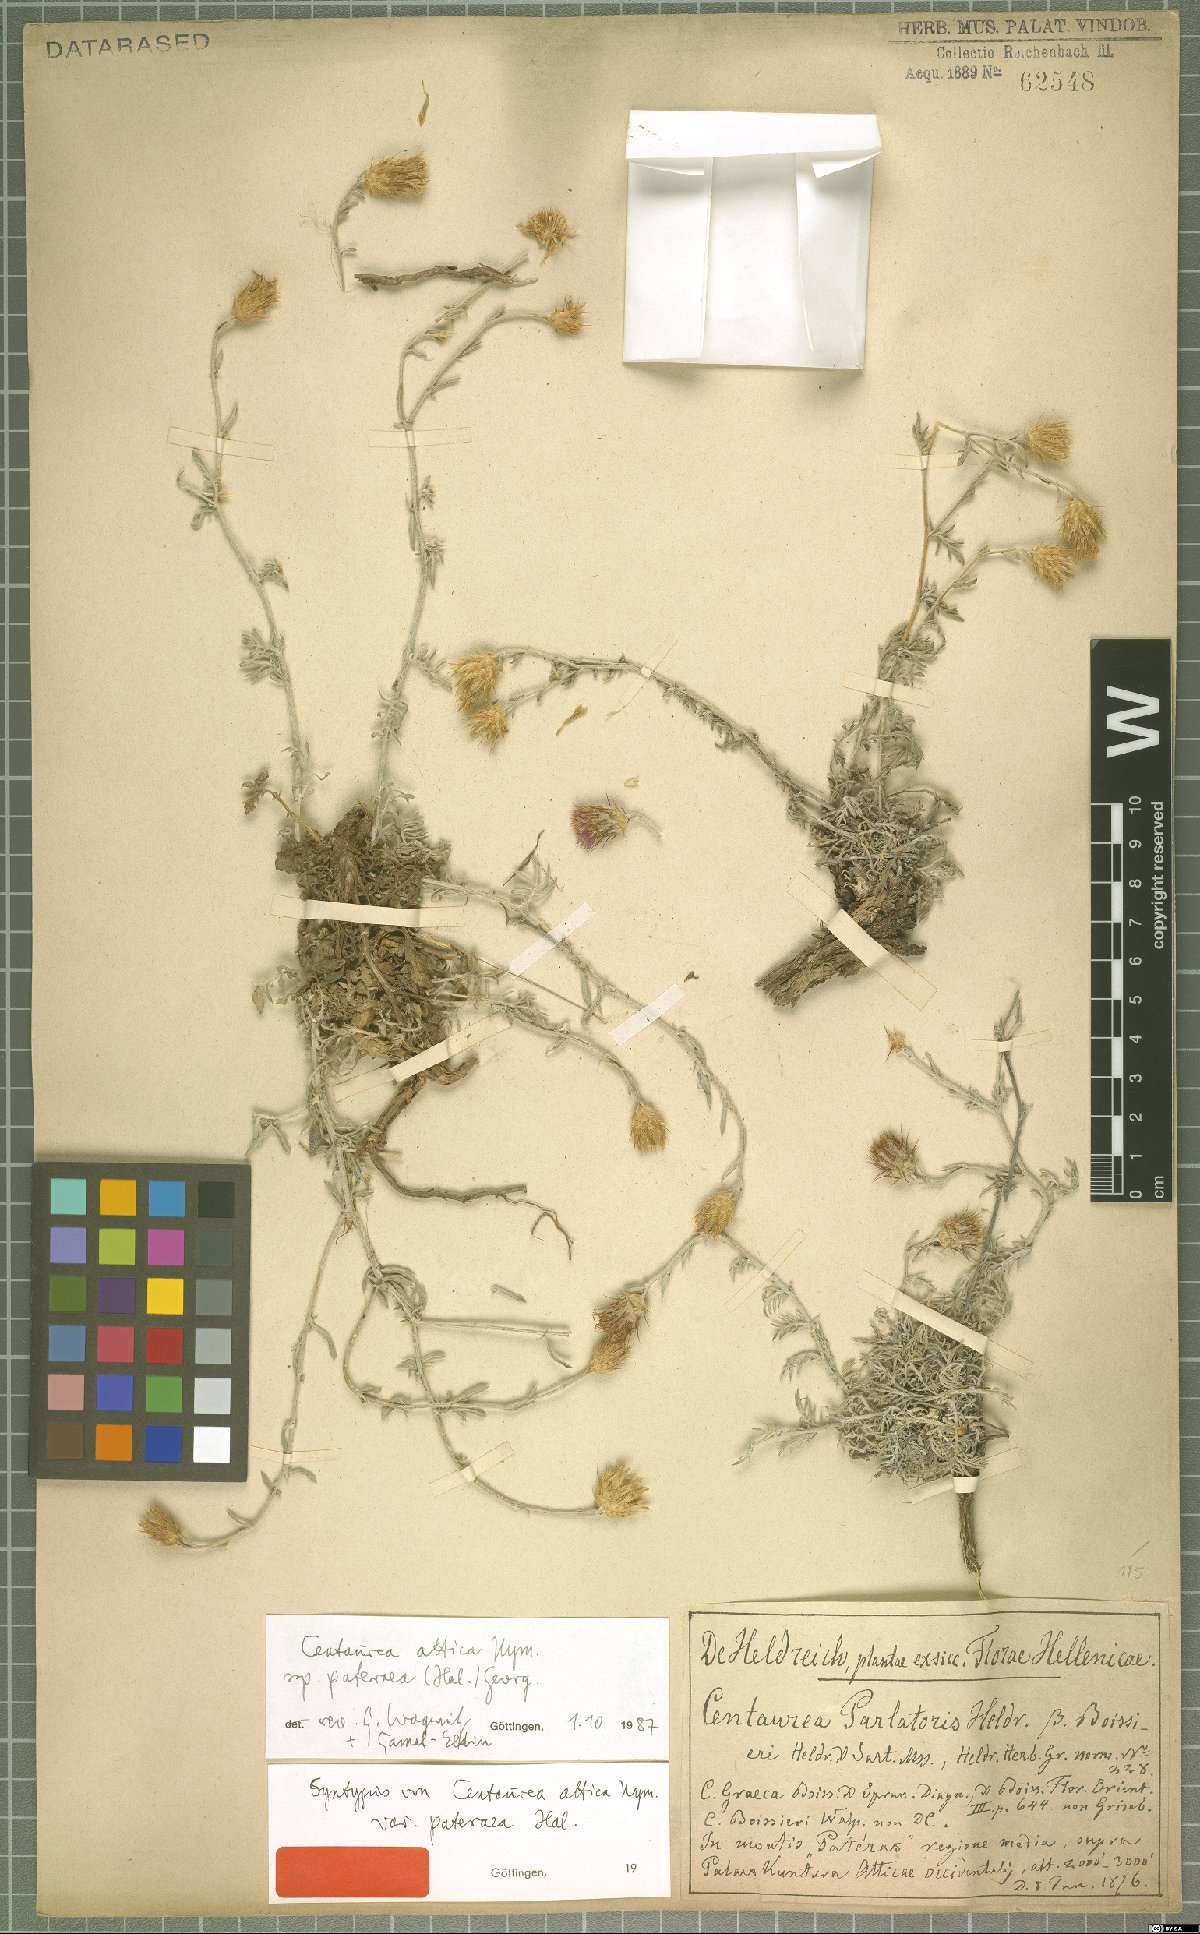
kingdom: Plantae
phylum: Tracheophyta
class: Magnoliopsida
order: Asterales
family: Asteraceae
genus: Centaurea
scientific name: Centaurea subsericans
